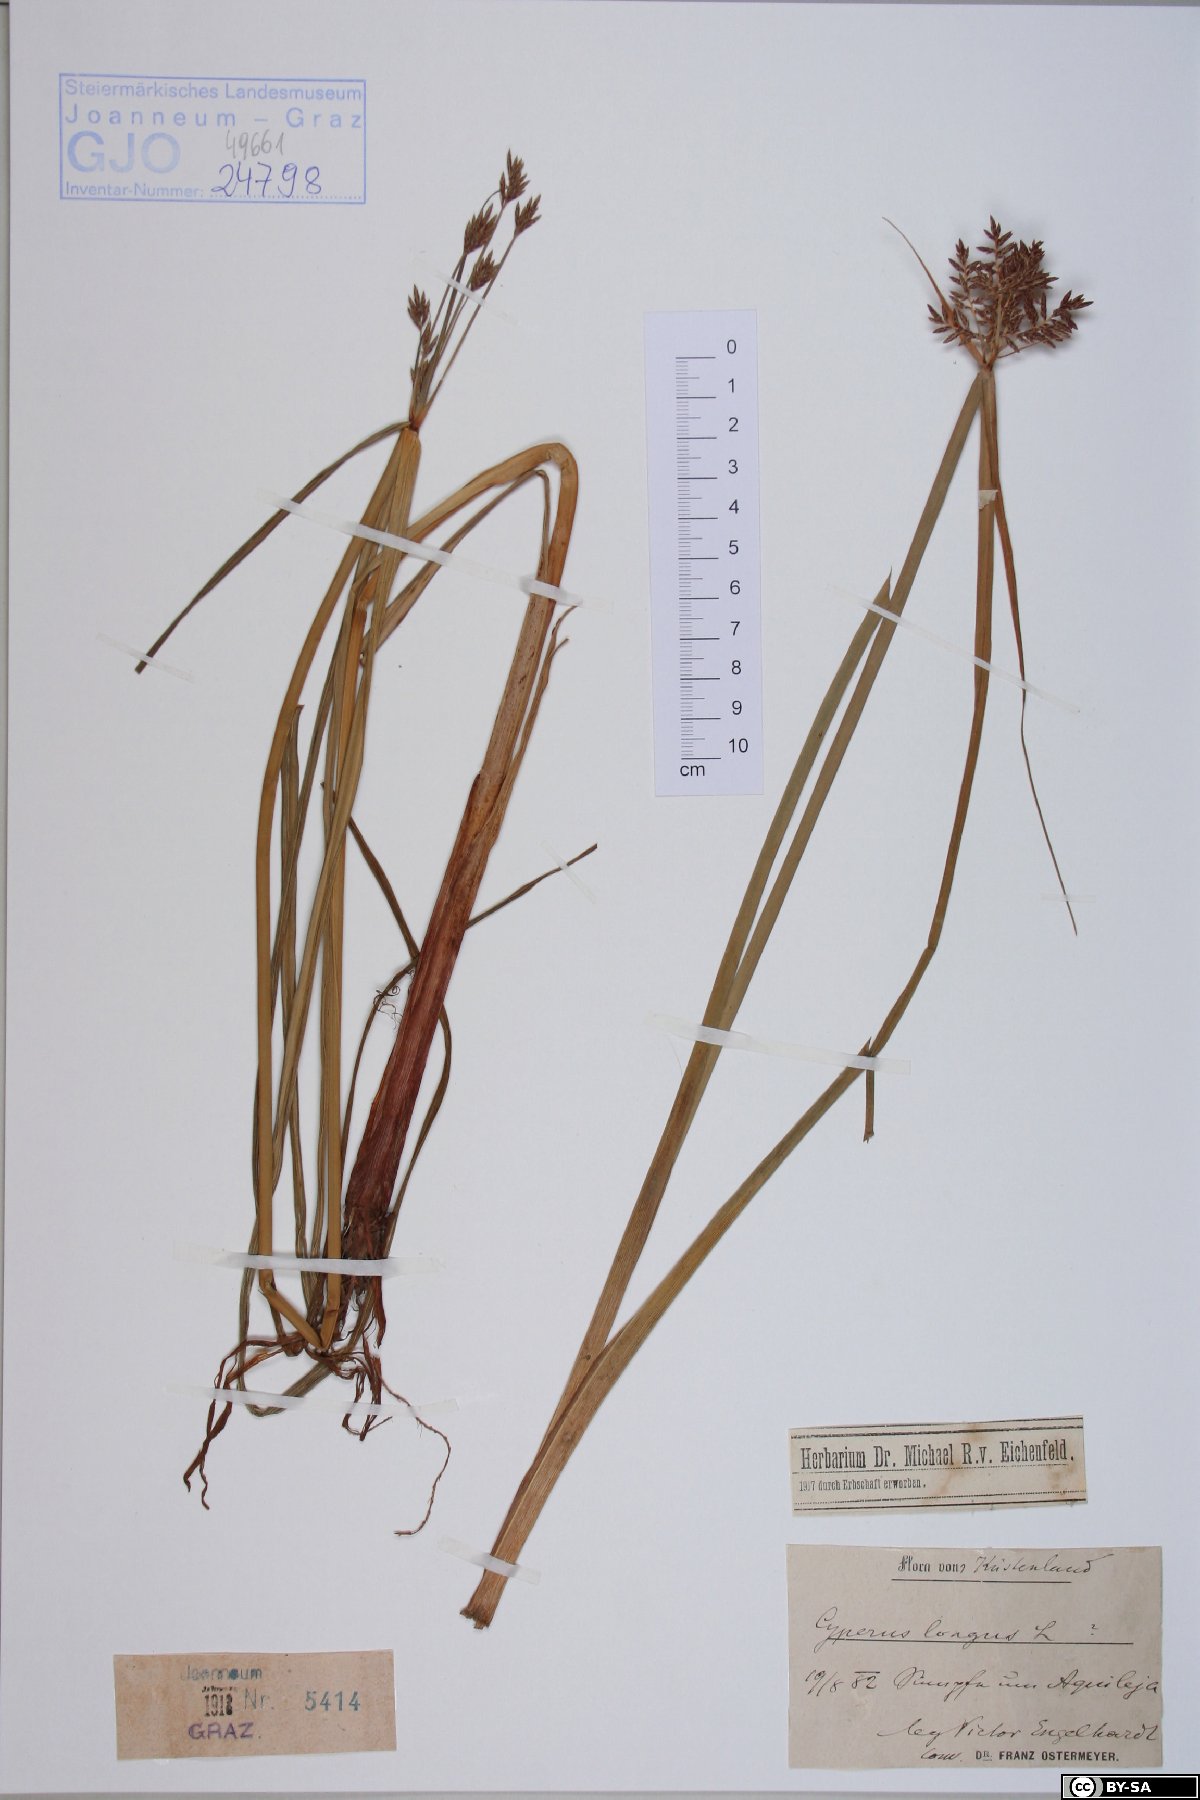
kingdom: Plantae
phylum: Tracheophyta
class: Liliopsida
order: Poales
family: Cyperaceae
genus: Cyperus
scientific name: Cyperus longus
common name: Galingale
